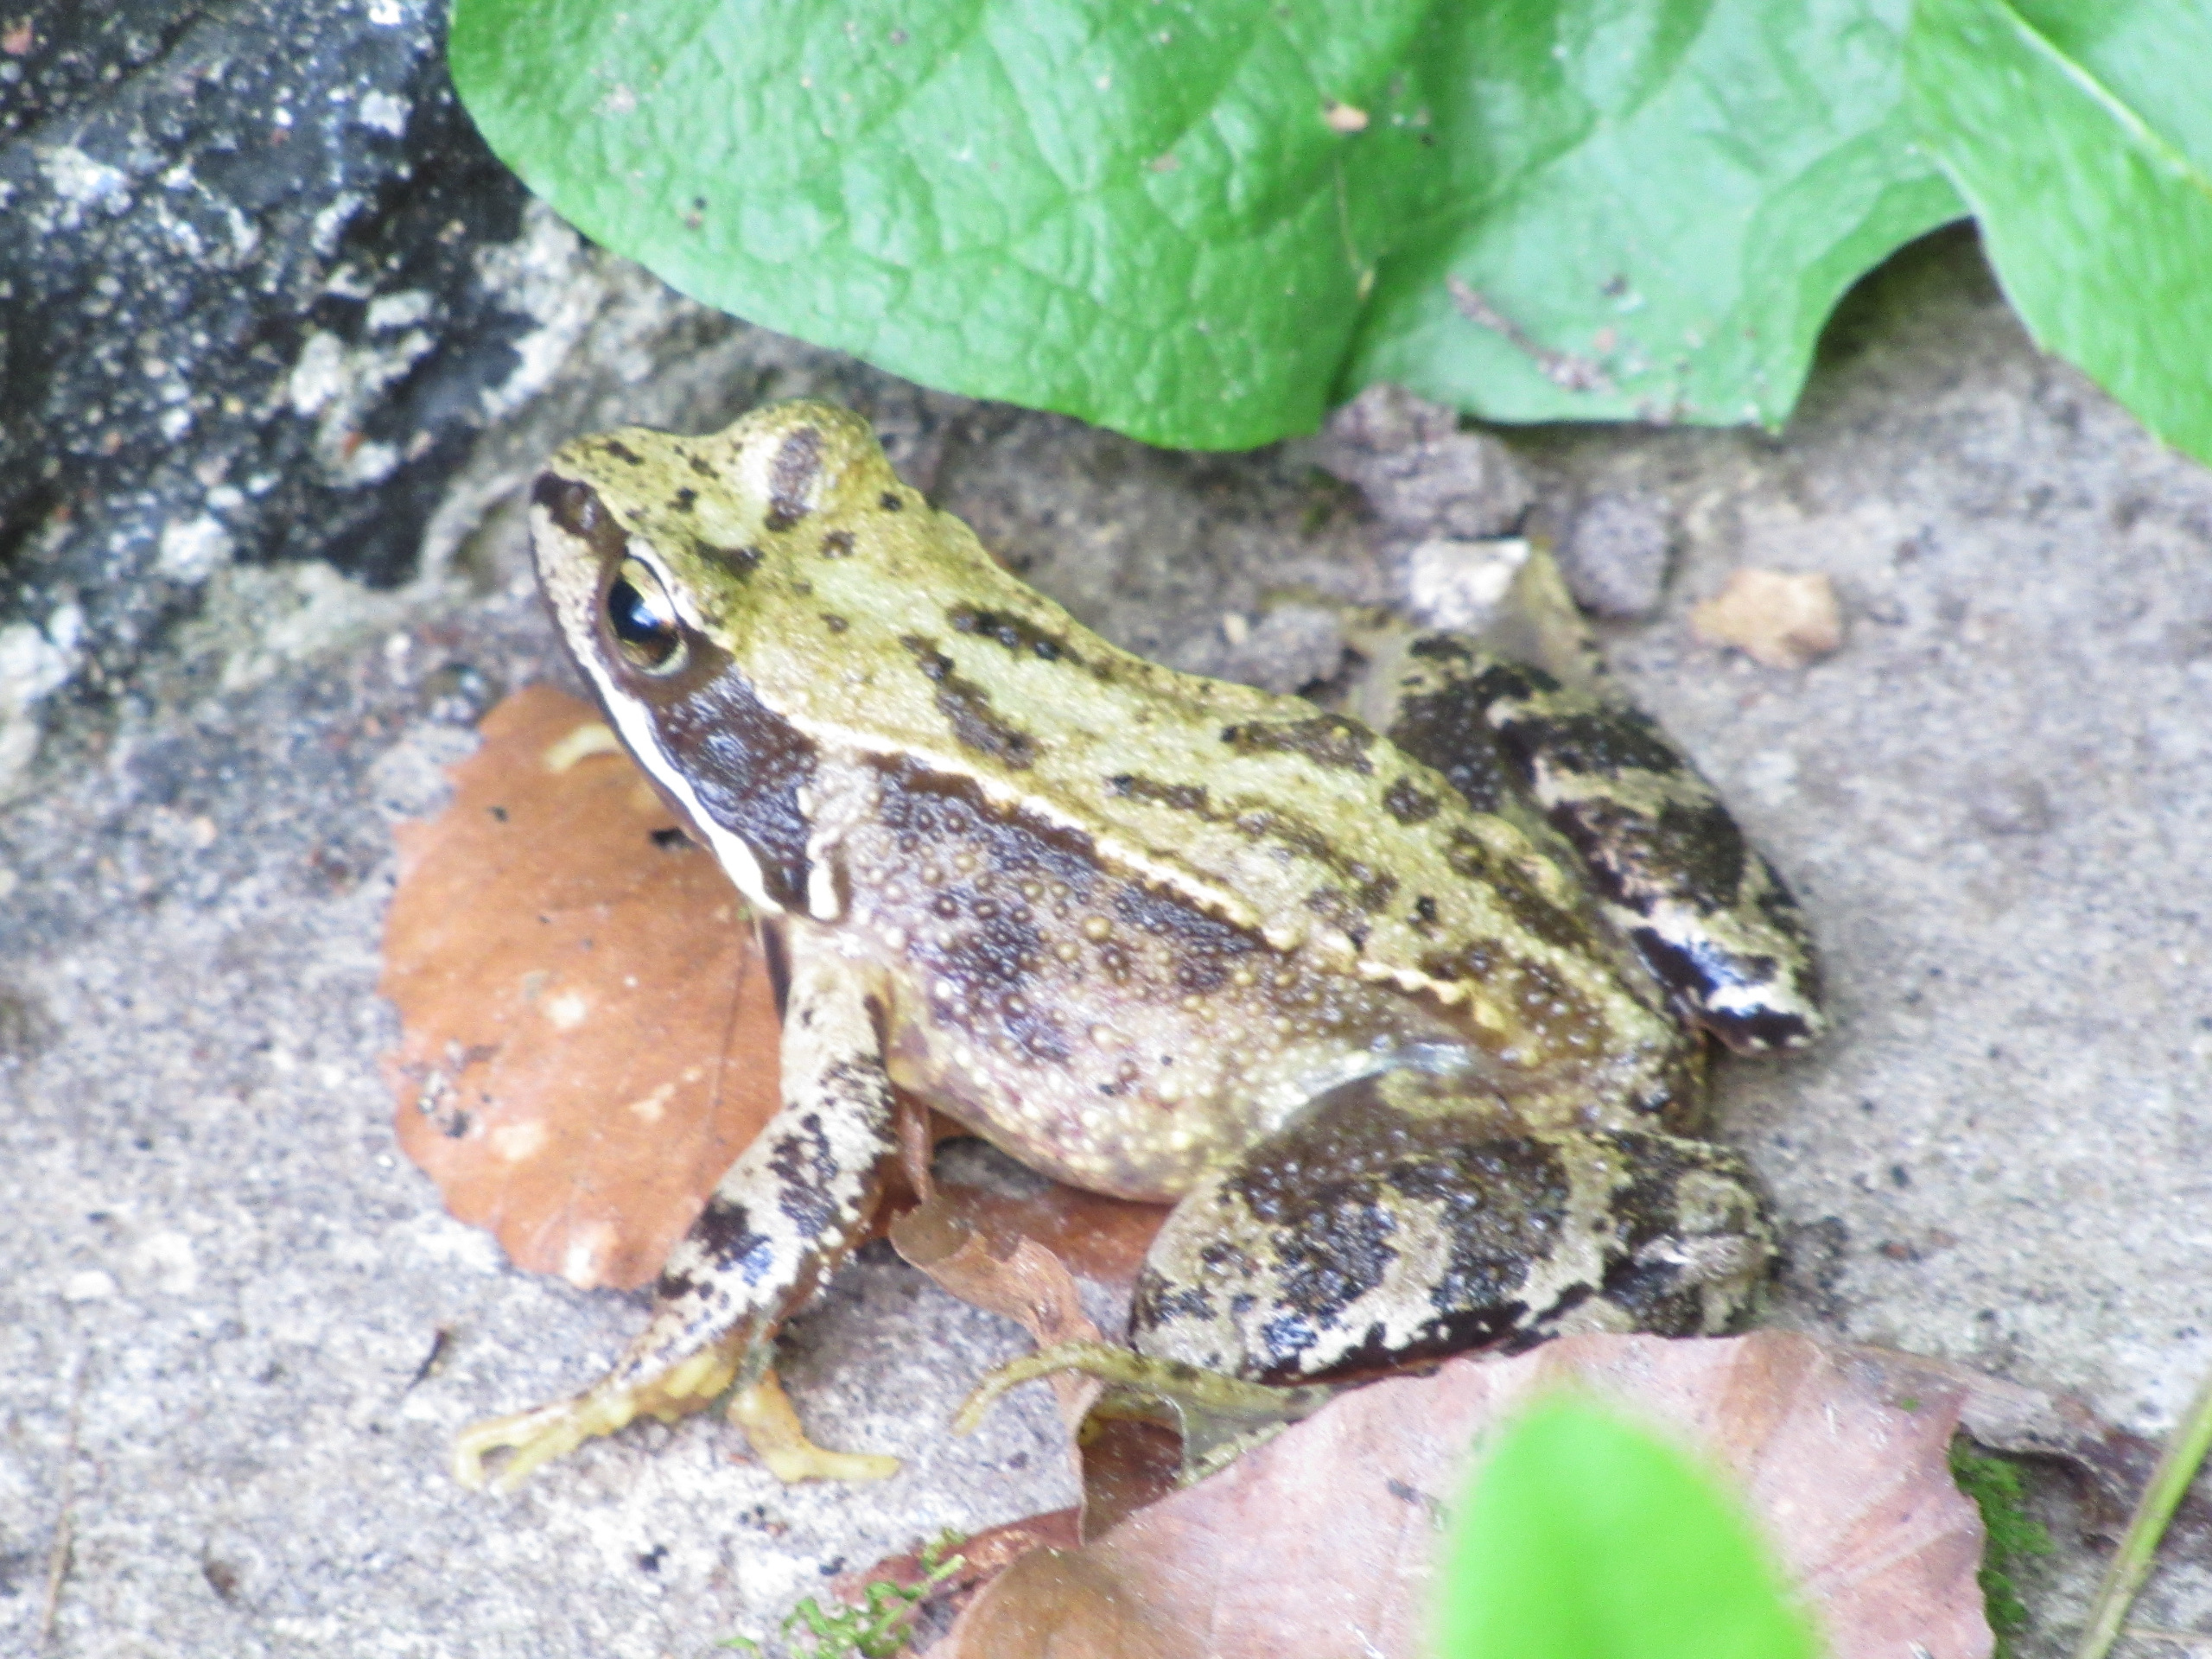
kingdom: Animalia
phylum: Chordata
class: Amphibia
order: Anura
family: Ranidae
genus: Rana
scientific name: Rana temporaria
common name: Butsnudet frø
